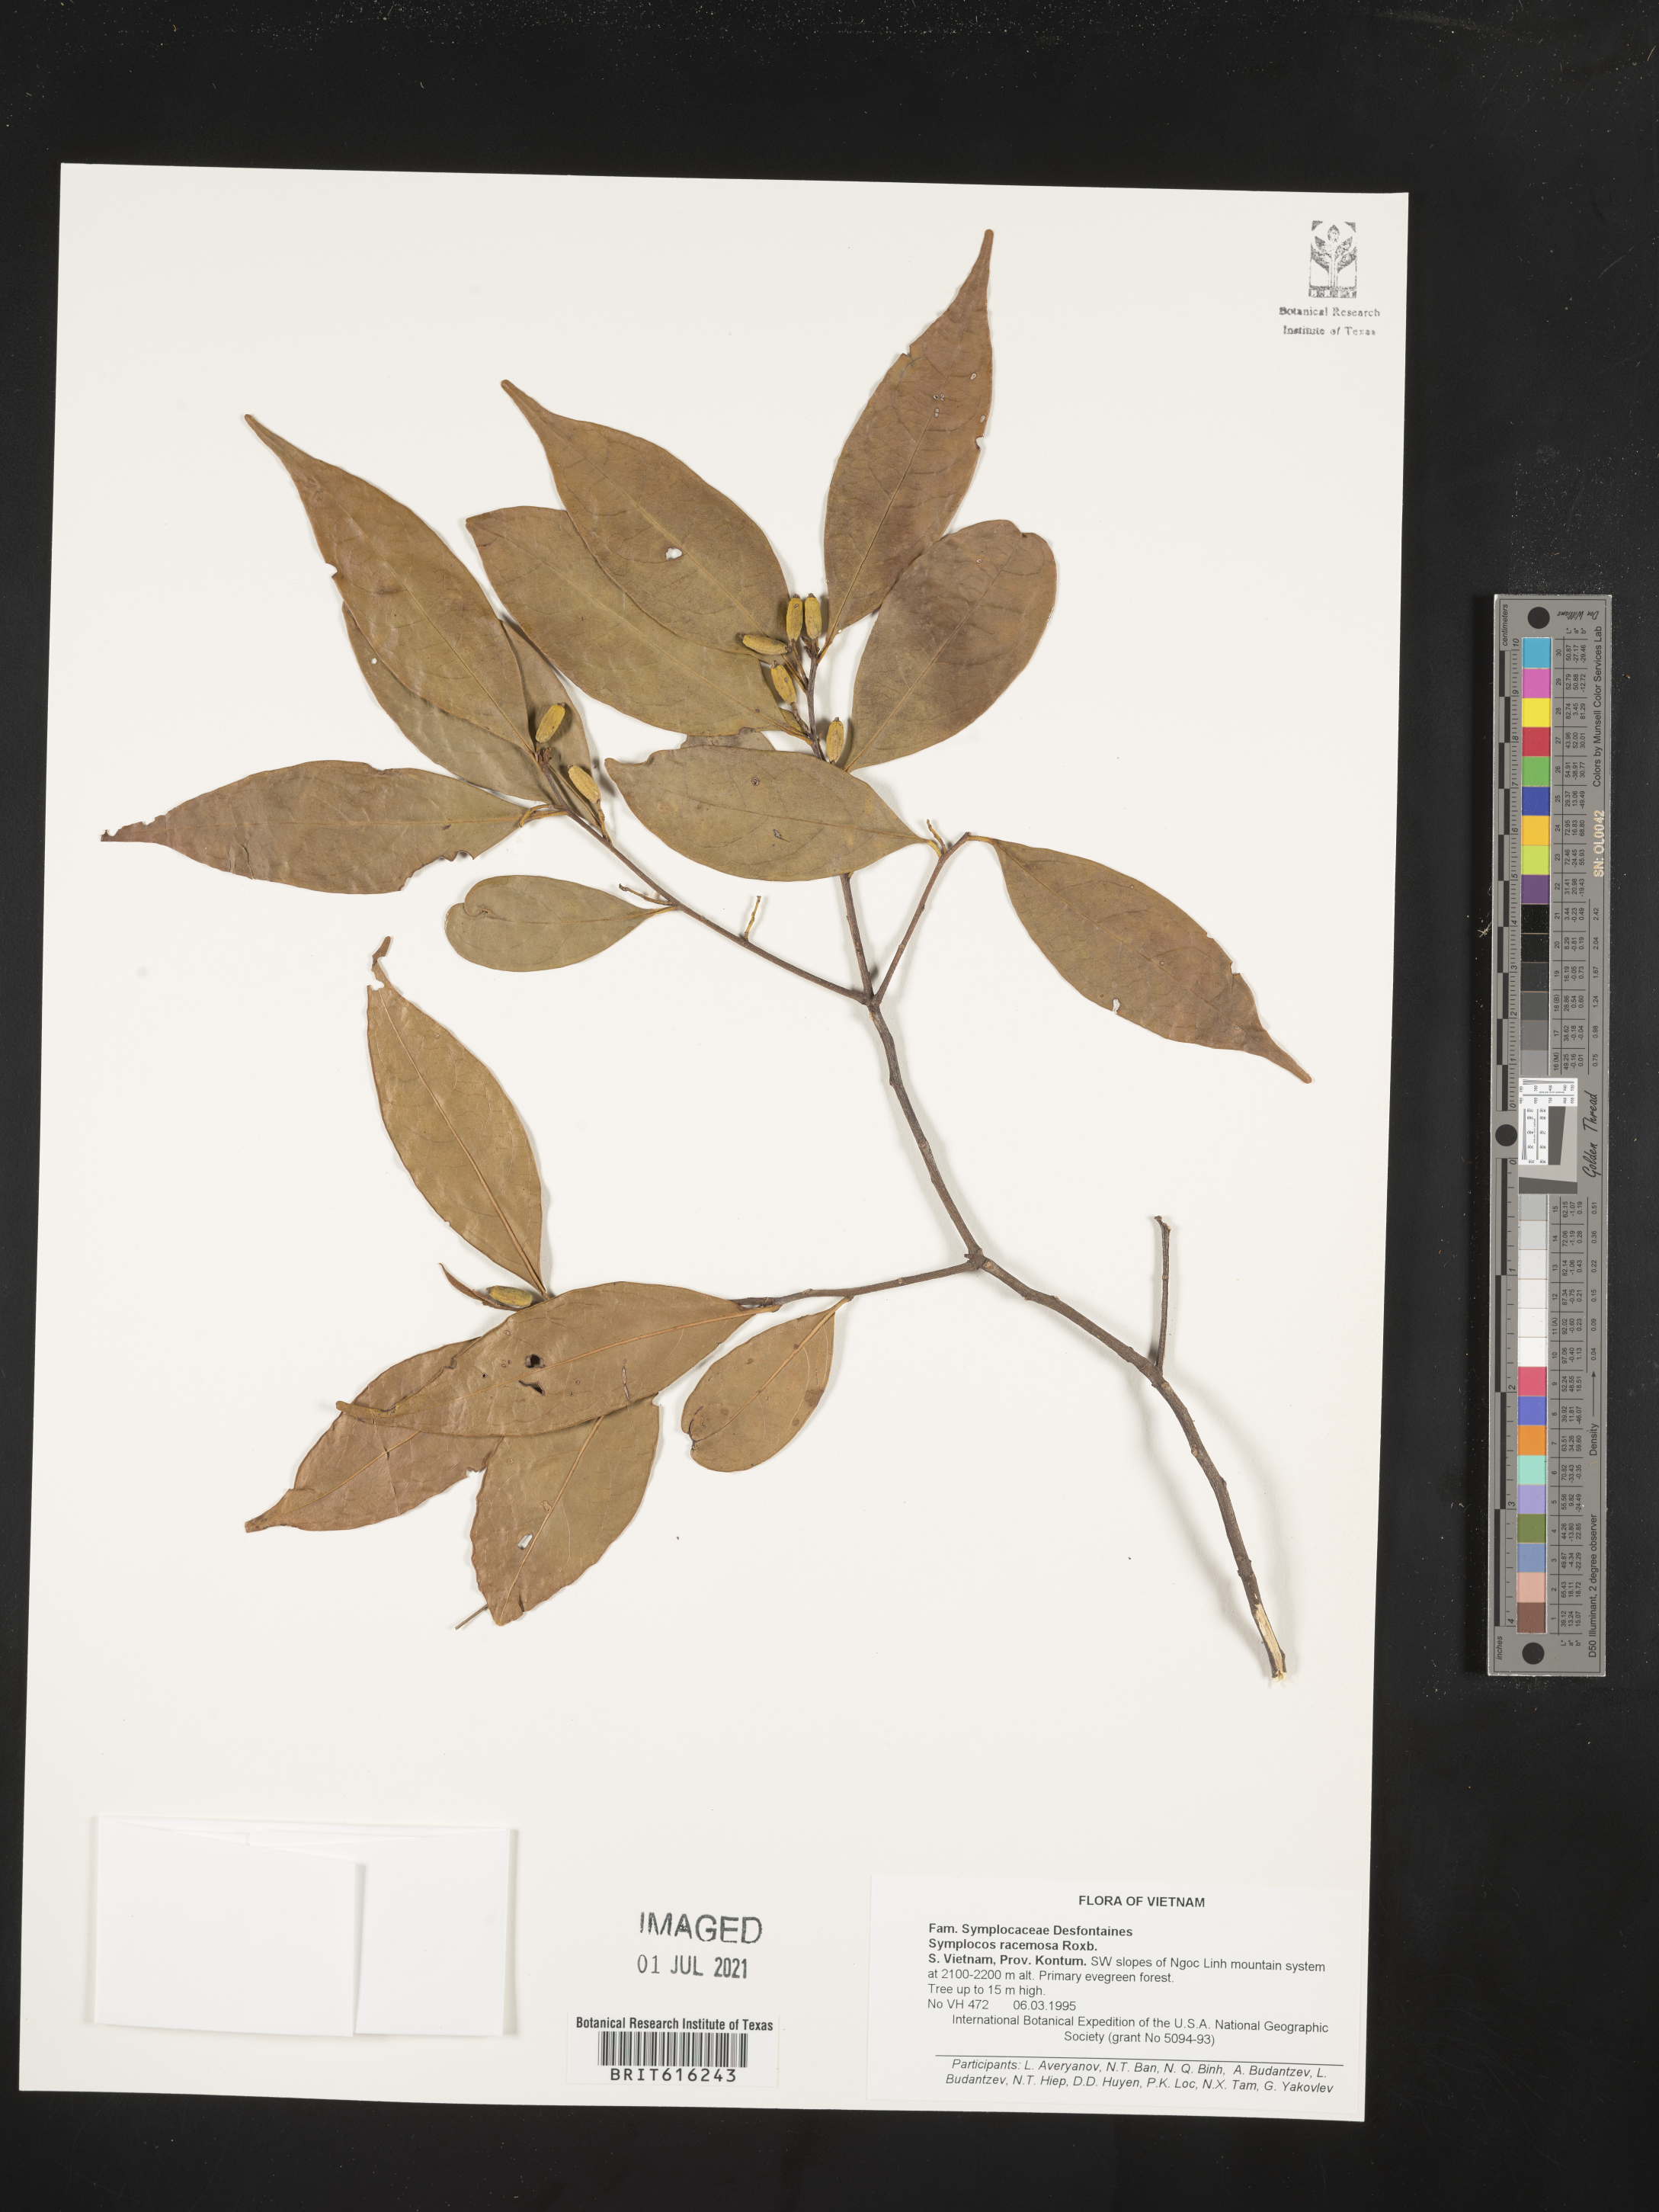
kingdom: Plantae
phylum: Tracheophyta
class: Magnoliopsida
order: Ericales
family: Symplocaceae
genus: Symplocos
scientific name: Symplocos racemosa
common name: Lodhtree
